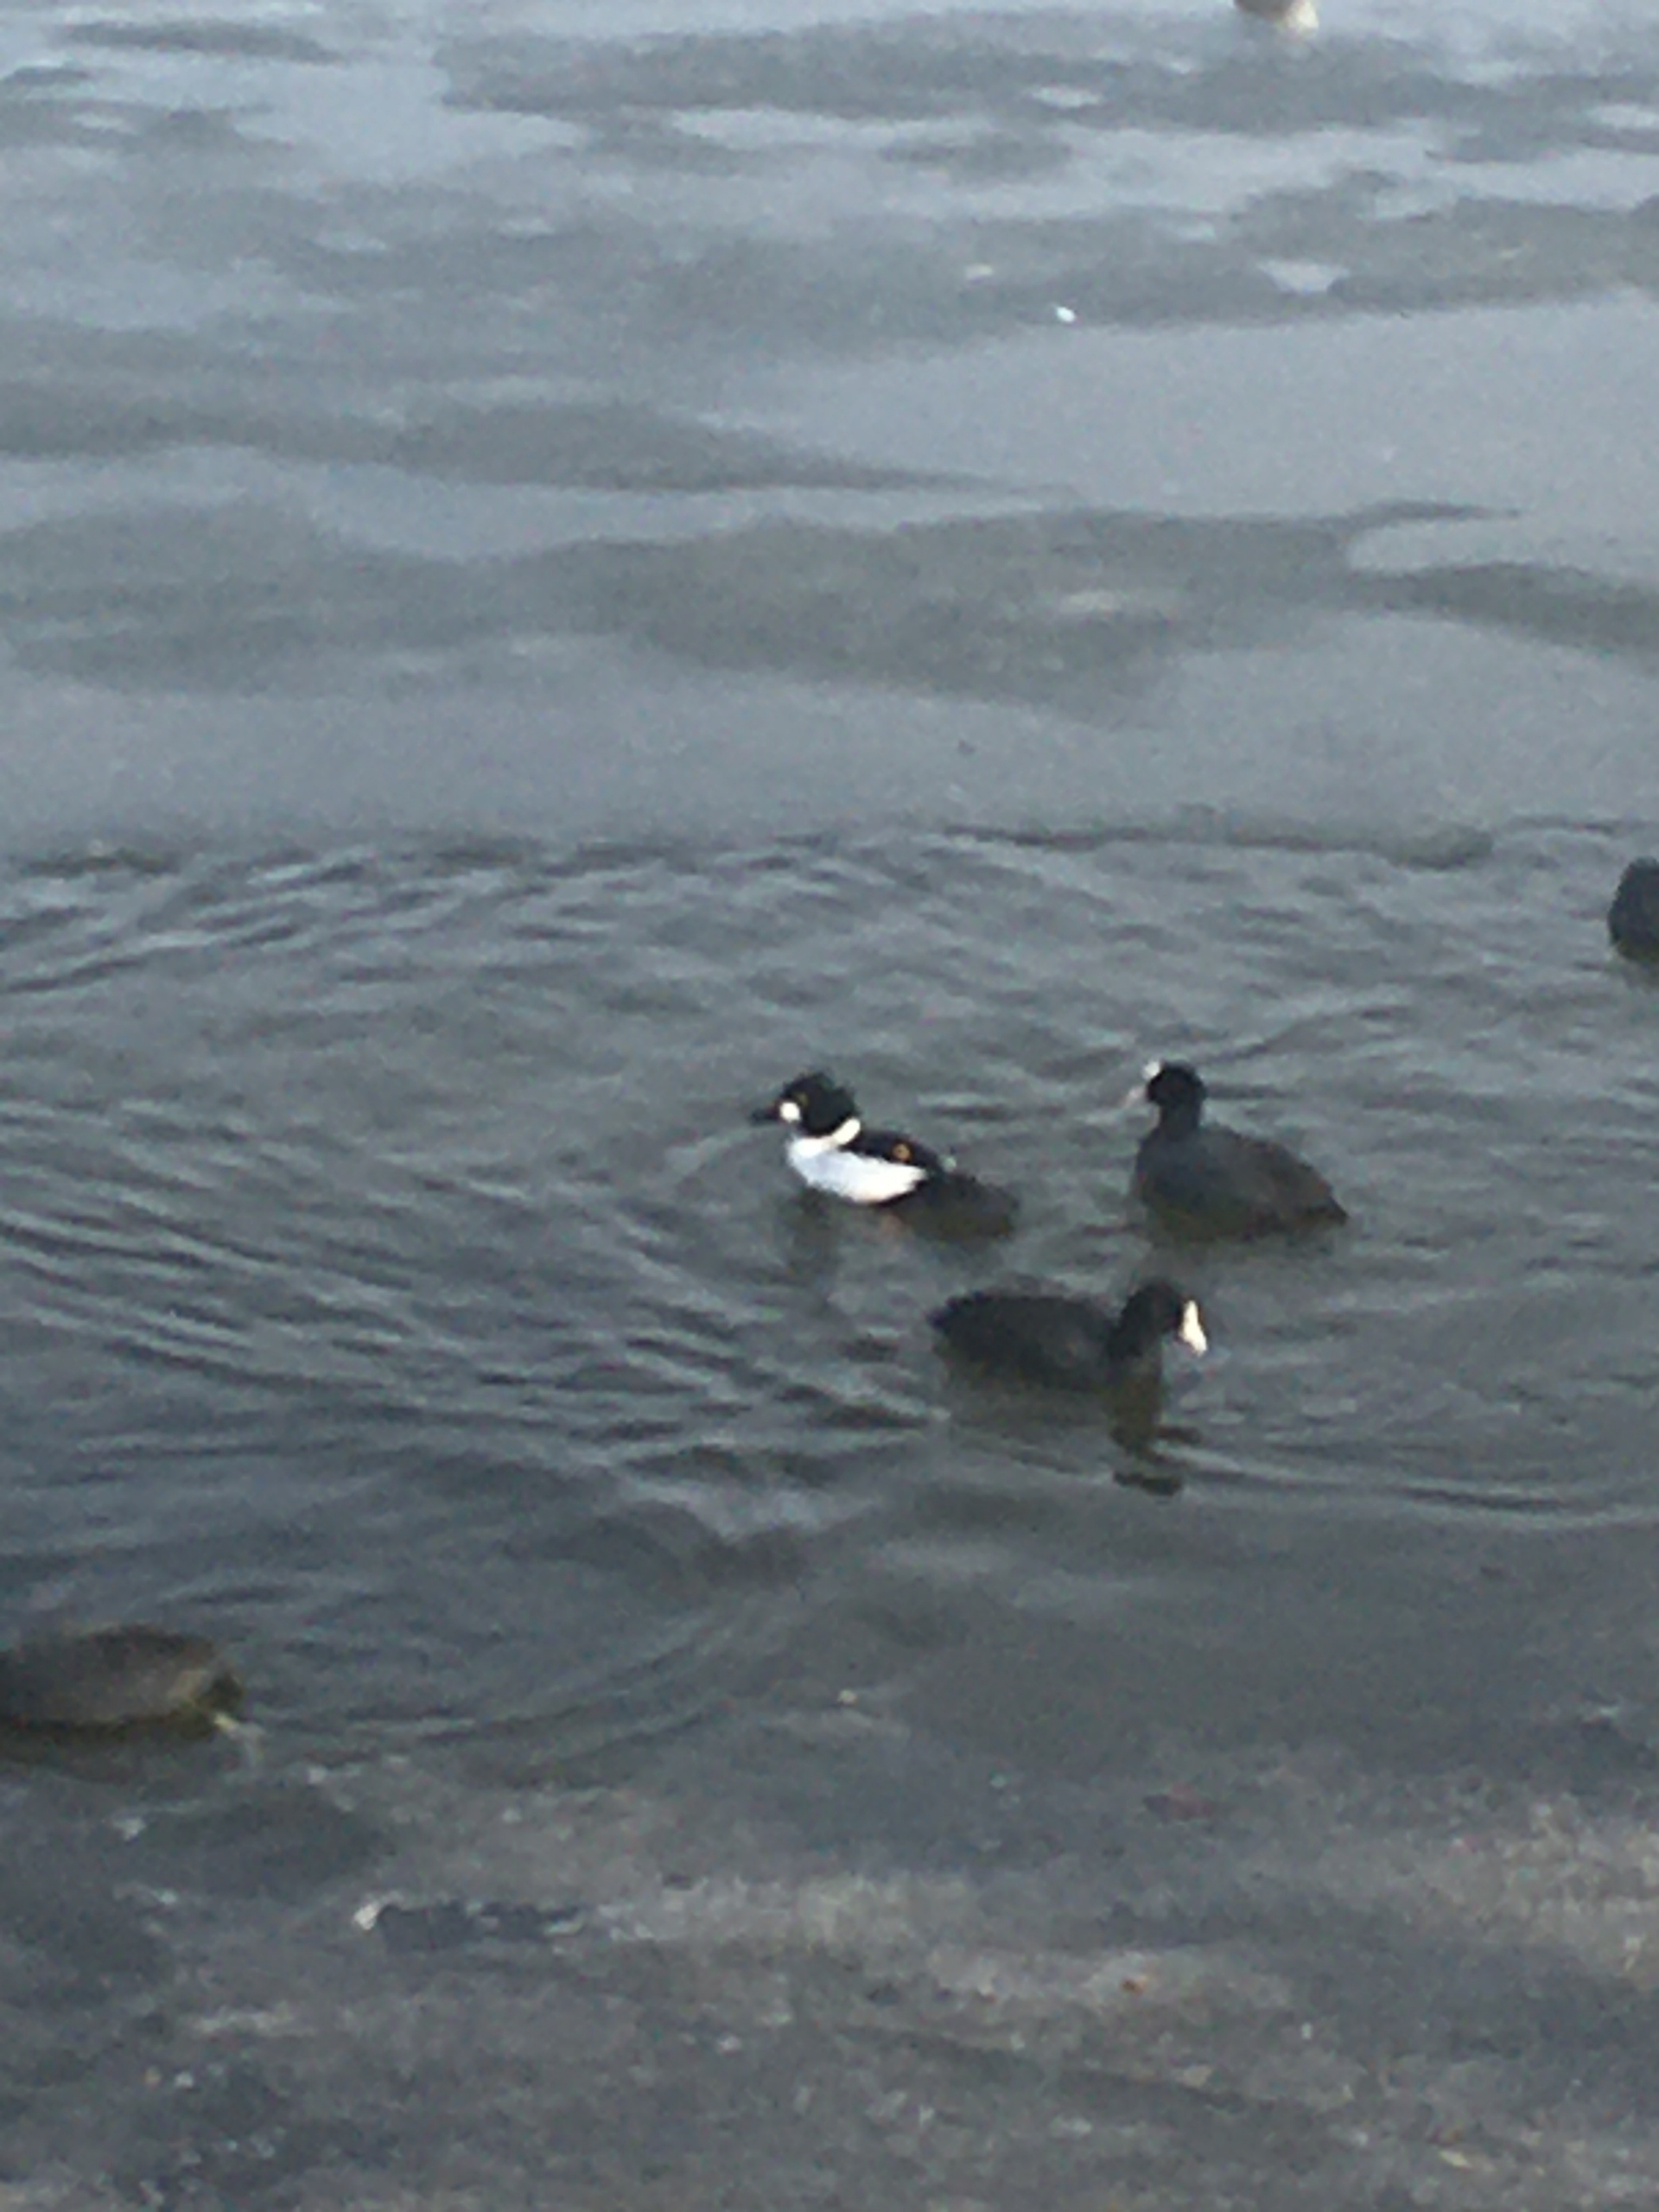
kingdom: Animalia
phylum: Chordata
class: Aves
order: Anseriformes
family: Anatidae
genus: Bucephala
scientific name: Bucephala clangula
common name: Hvinand
